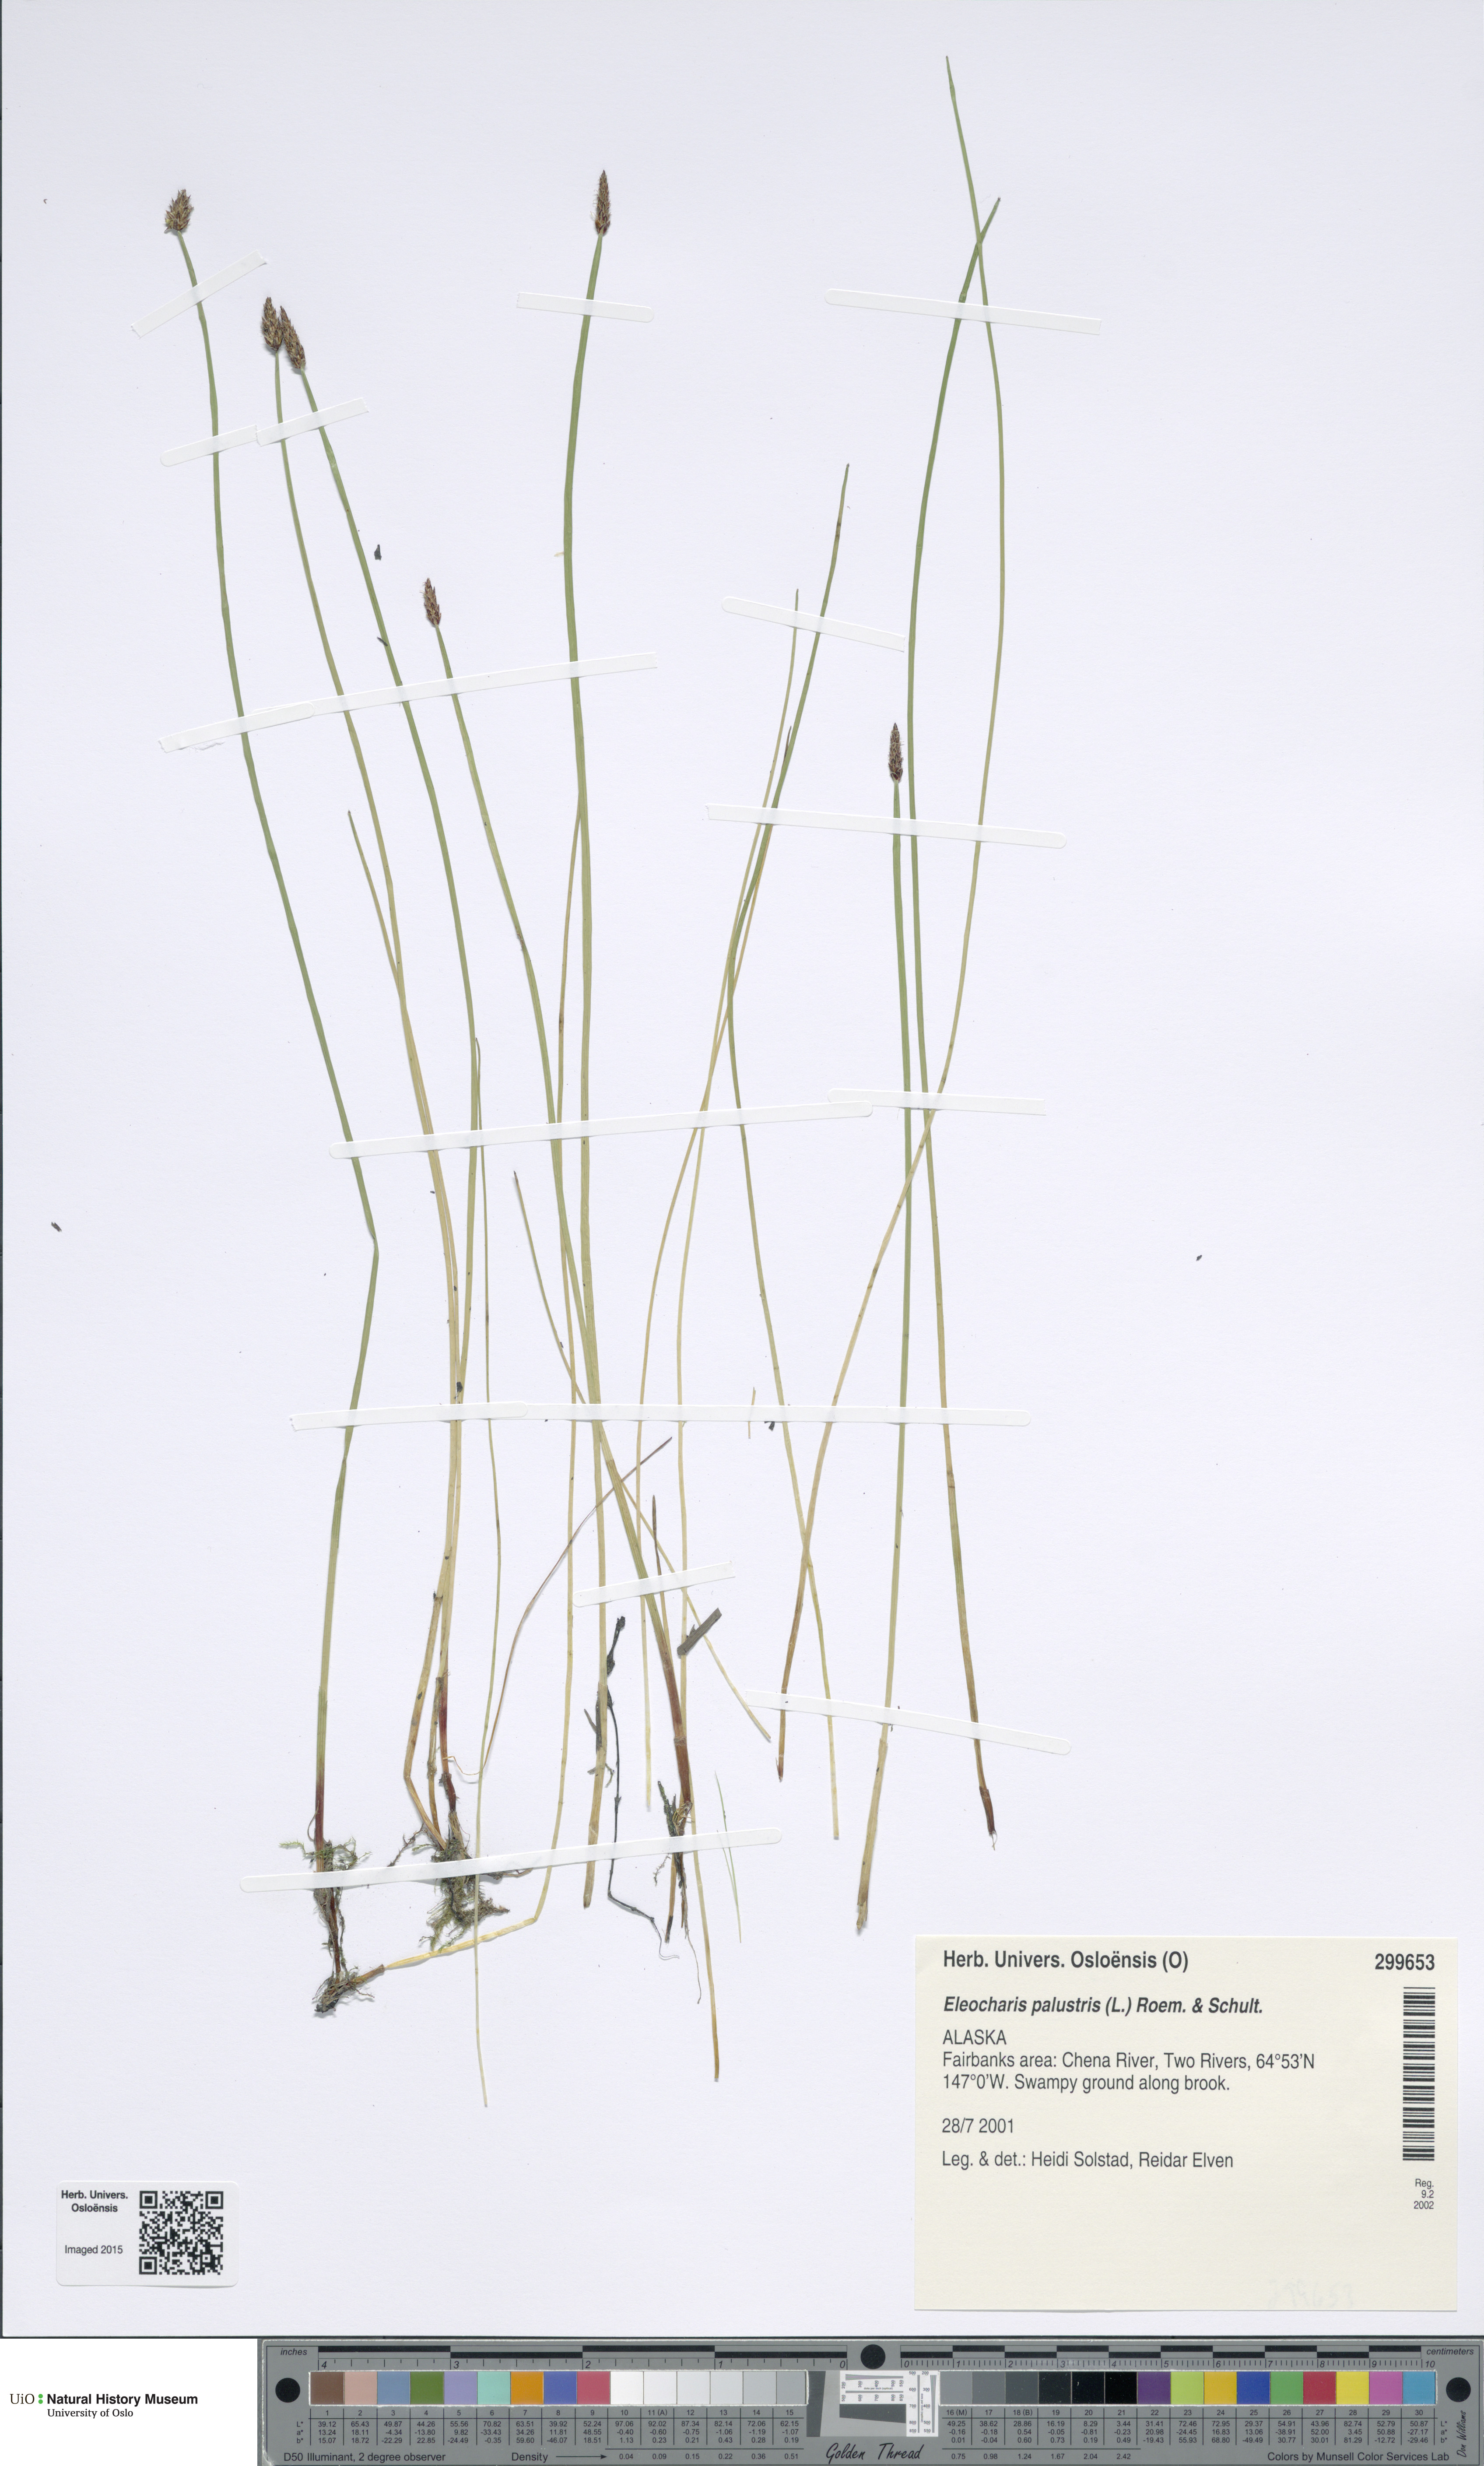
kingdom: Plantae
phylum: Tracheophyta
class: Liliopsida
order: Poales
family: Cyperaceae
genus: Eleocharis
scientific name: Eleocharis palustris
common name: Common spike-rush
